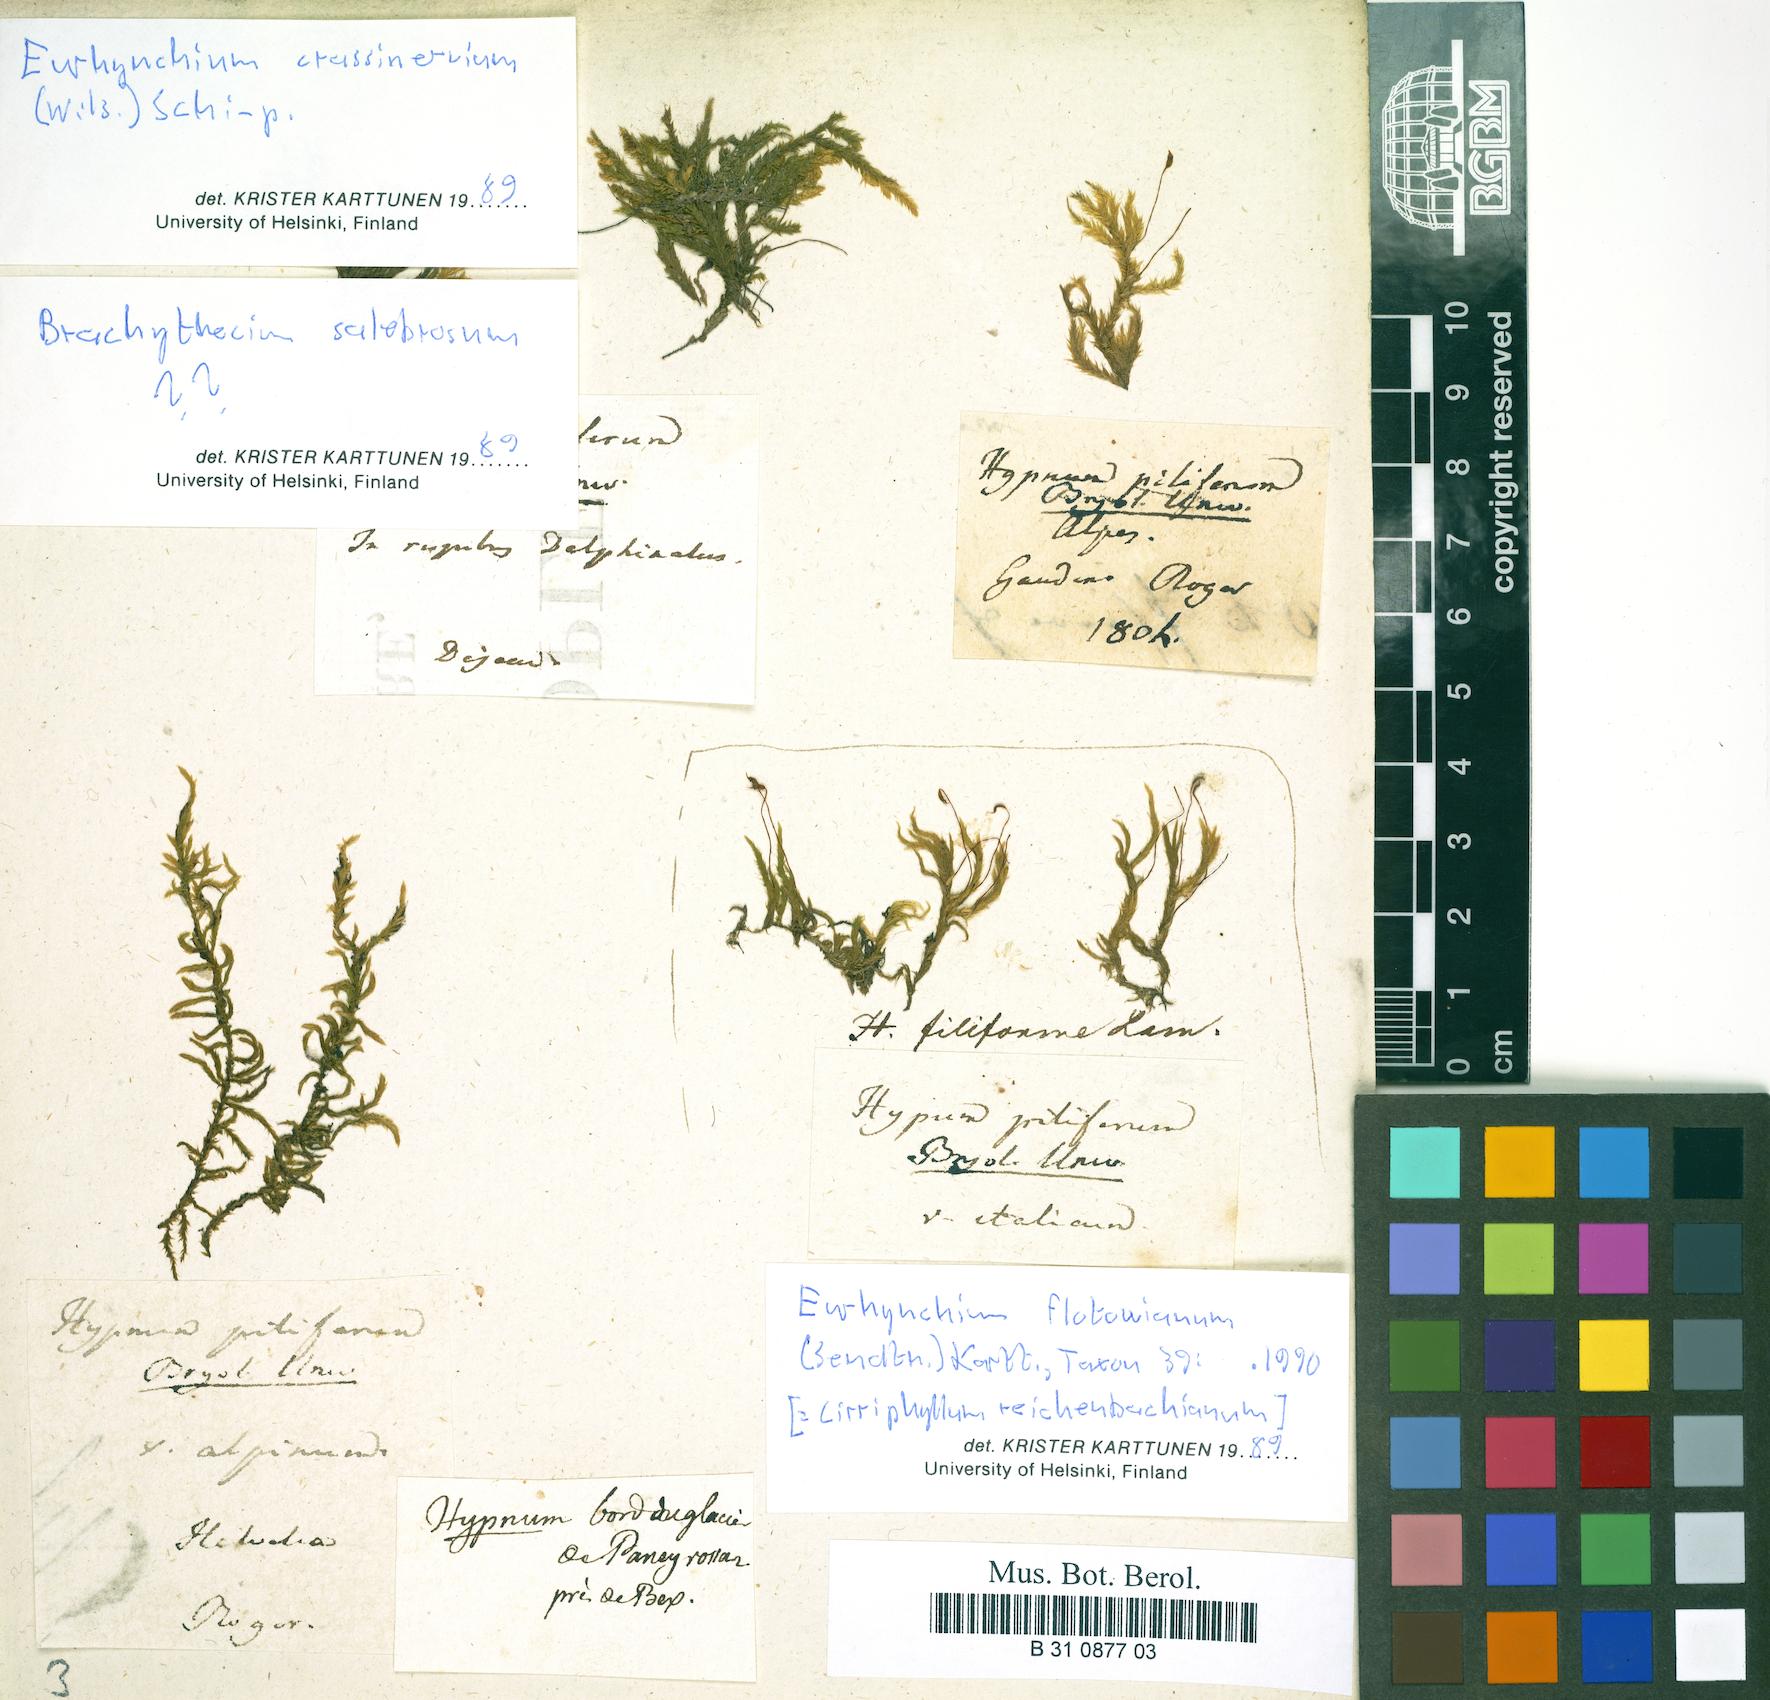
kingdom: Plantae
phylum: Bryophyta
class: Bryopsida
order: Hypnales
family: Brachytheciaceae
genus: Cirriphyllum
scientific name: Cirriphyllum piliferum
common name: Hair-pointed moss
